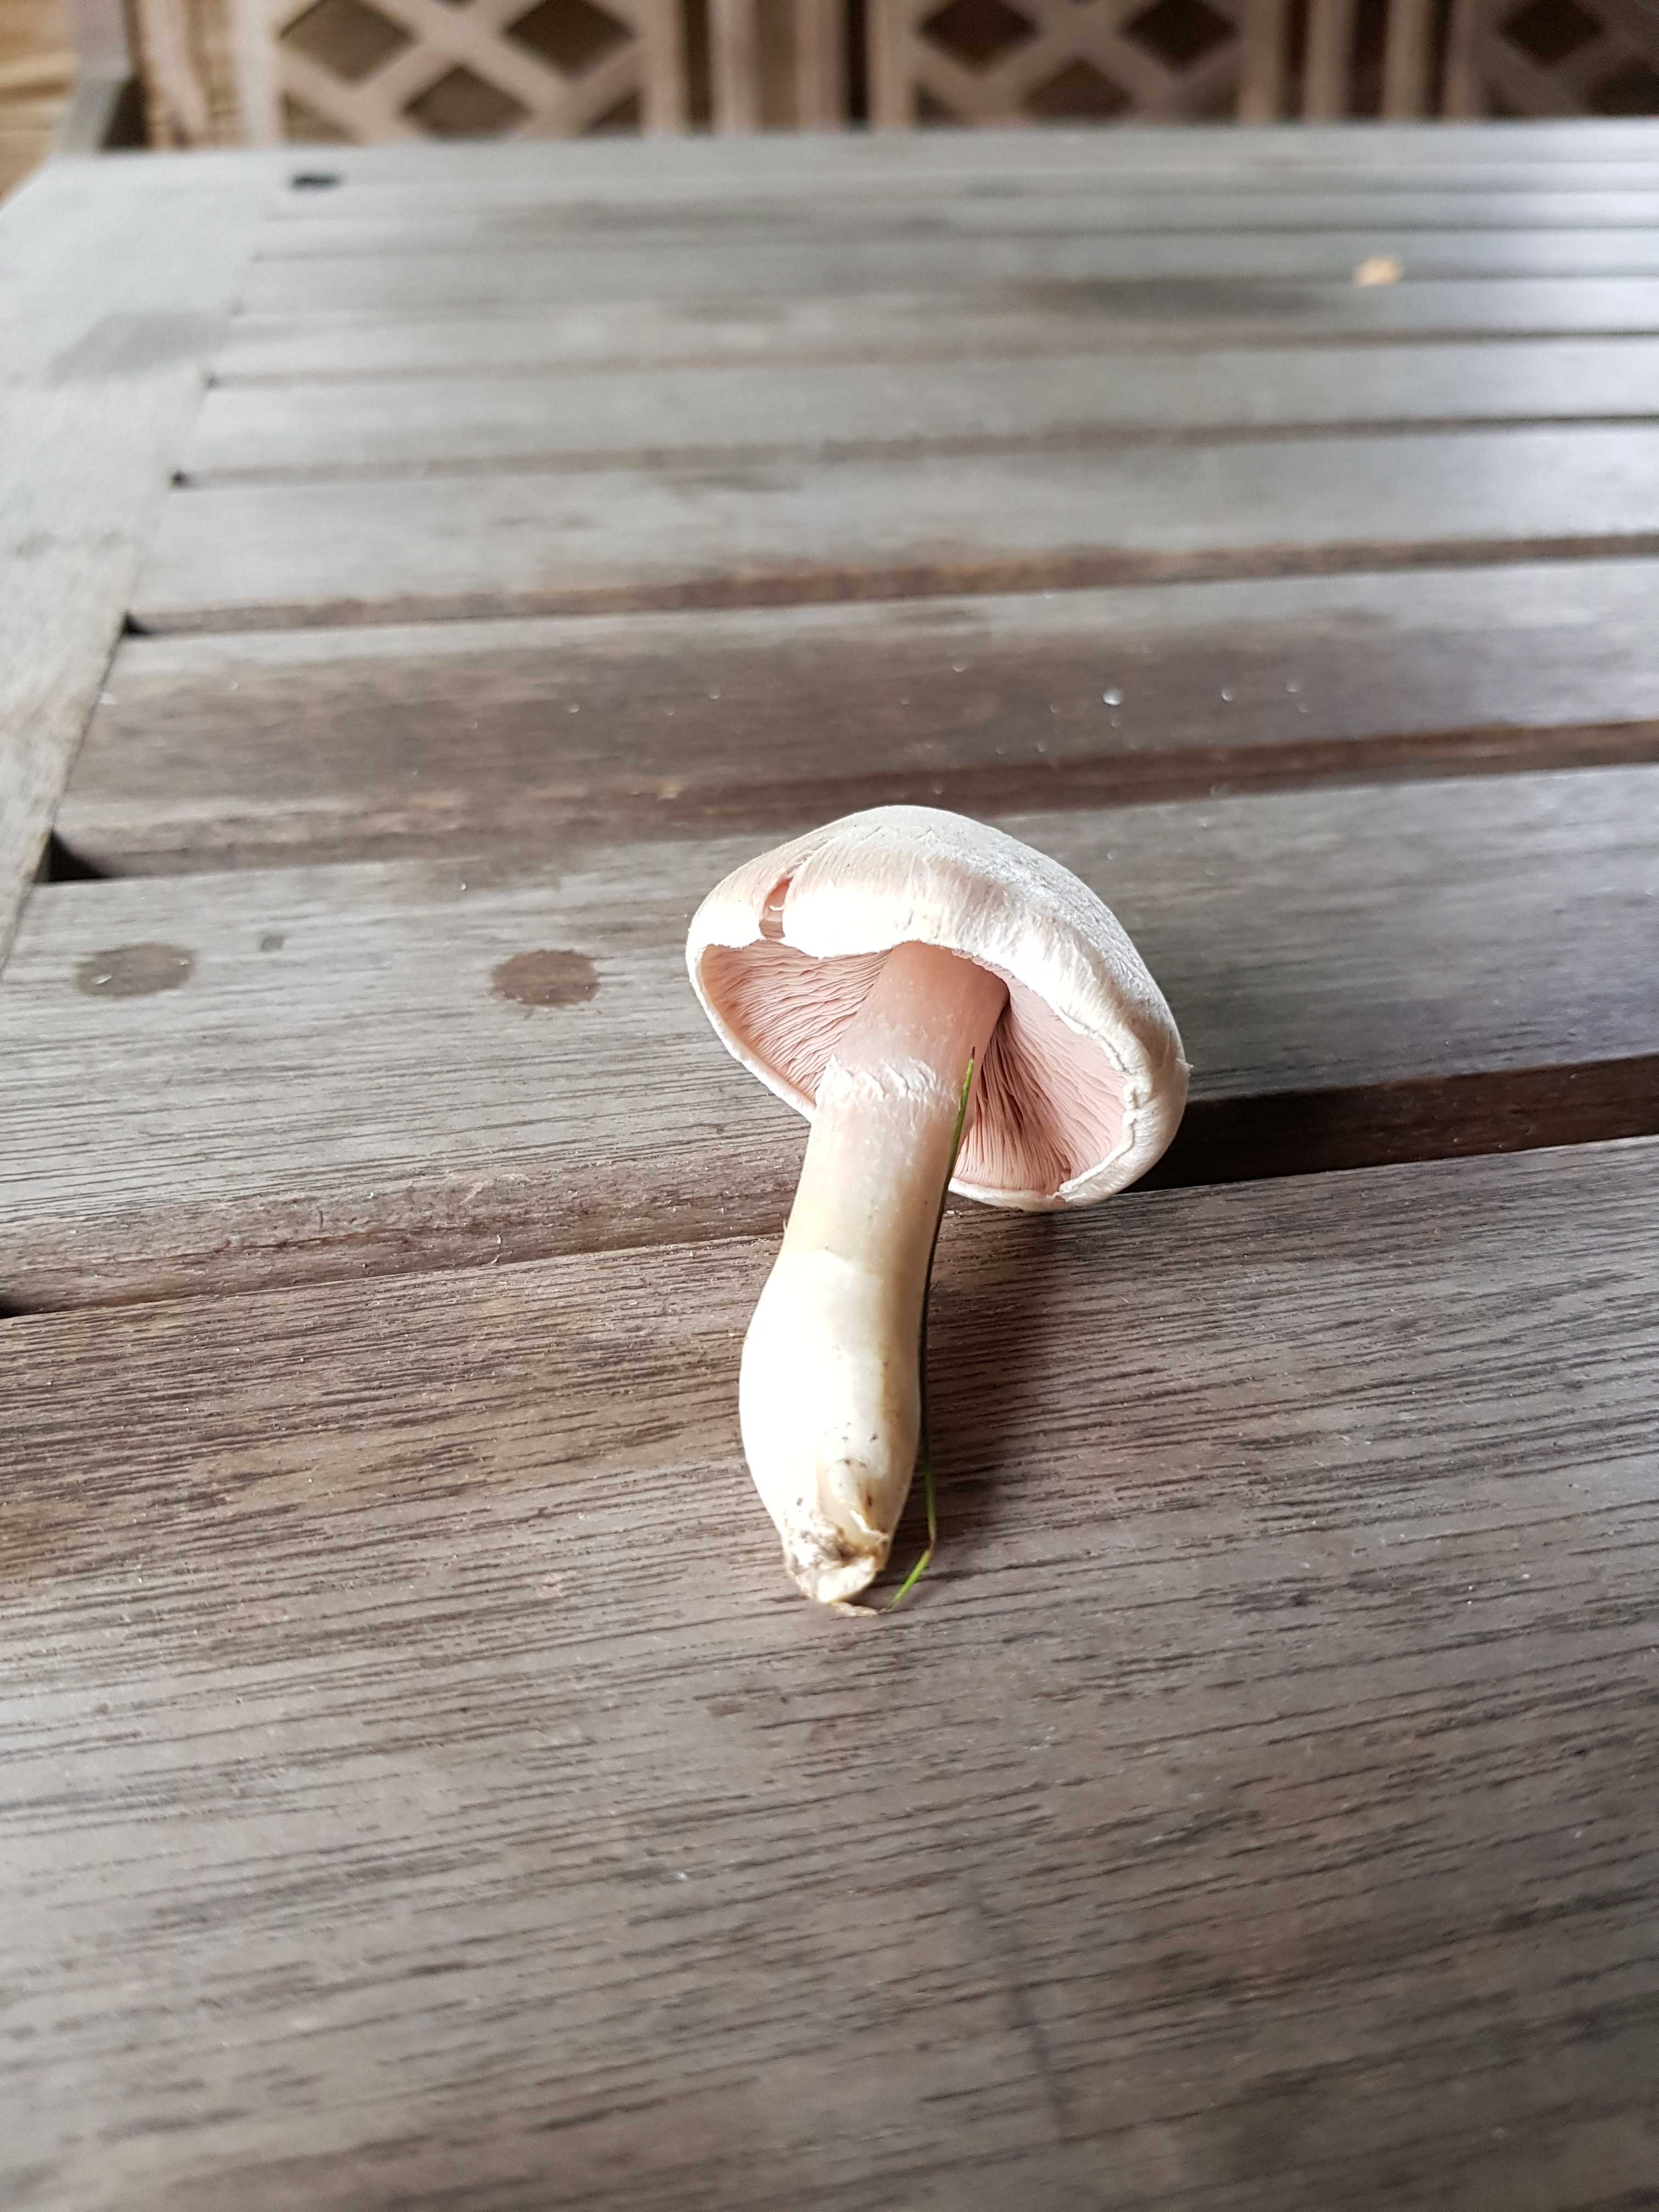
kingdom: Fungi
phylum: Basidiomycota
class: Agaricomycetes
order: Agaricales
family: Agaricaceae
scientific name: Agaricaceae
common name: champignonfamilien
